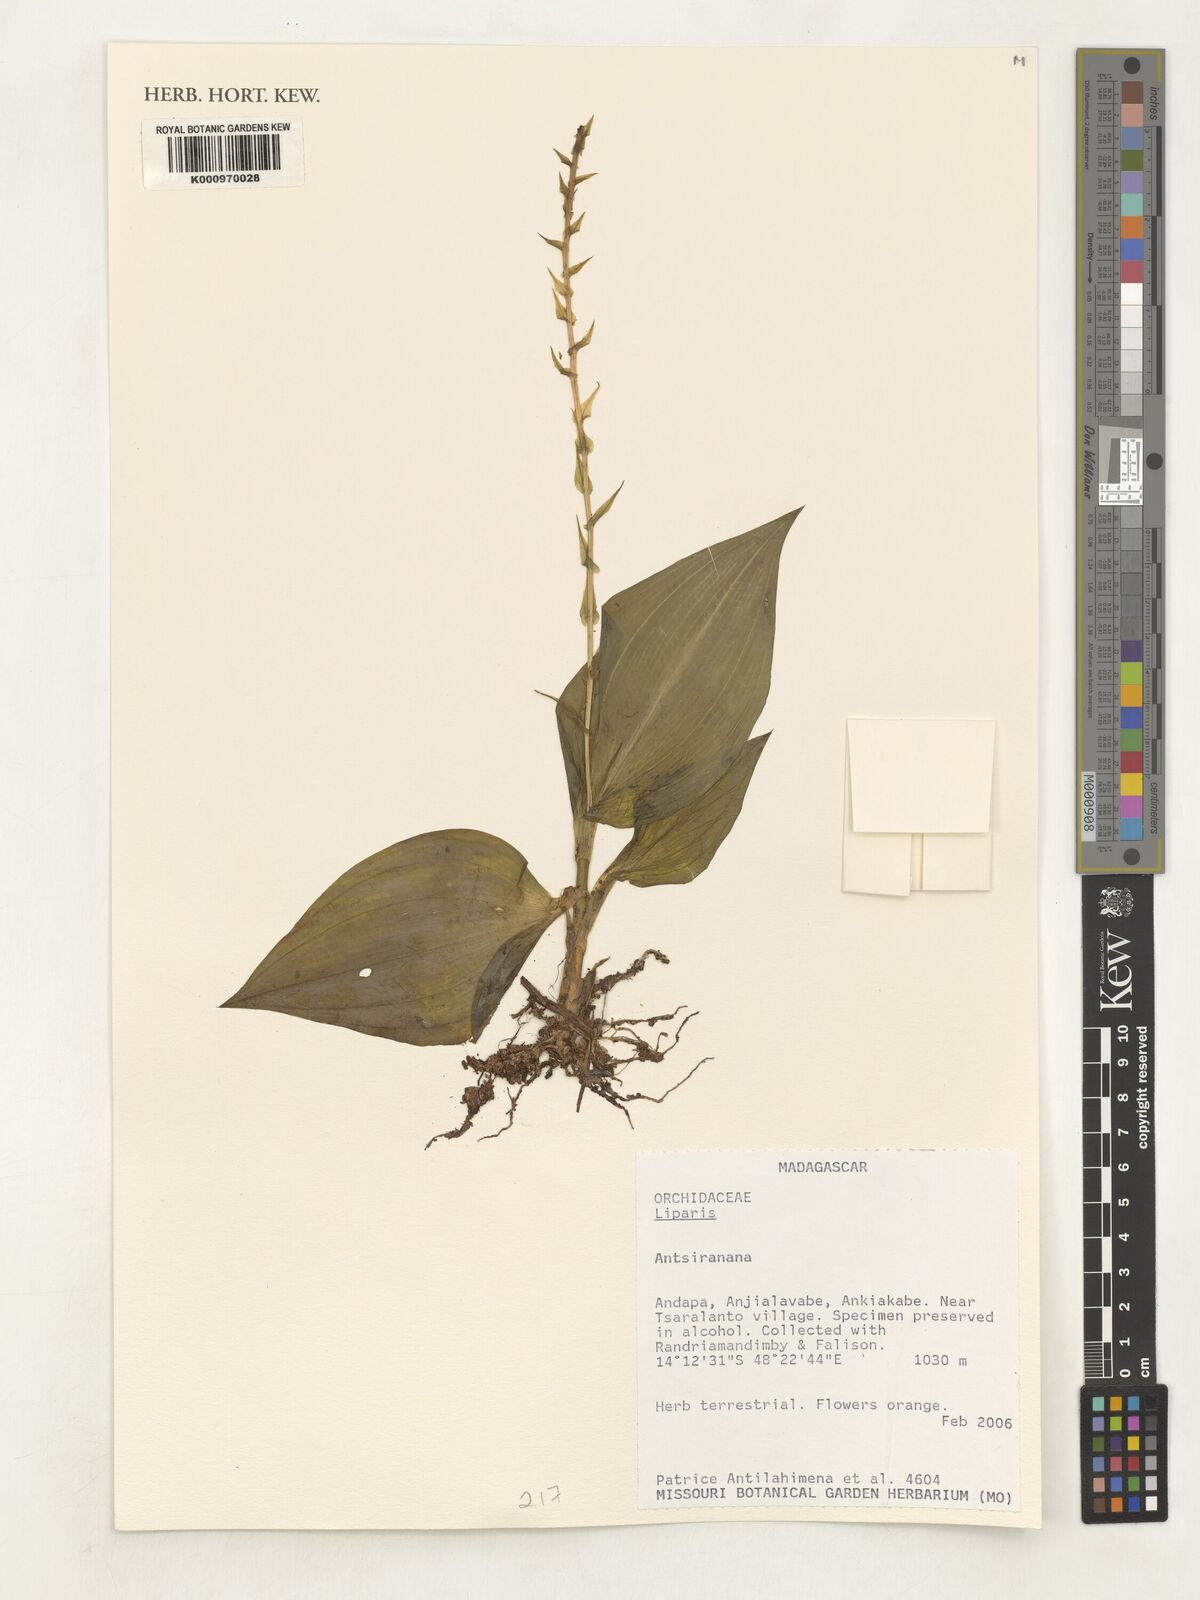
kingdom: Plantae
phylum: Tracheophyta
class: Liliopsida
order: Asparagales
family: Orchidaceae
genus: Liparis
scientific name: Liparis
